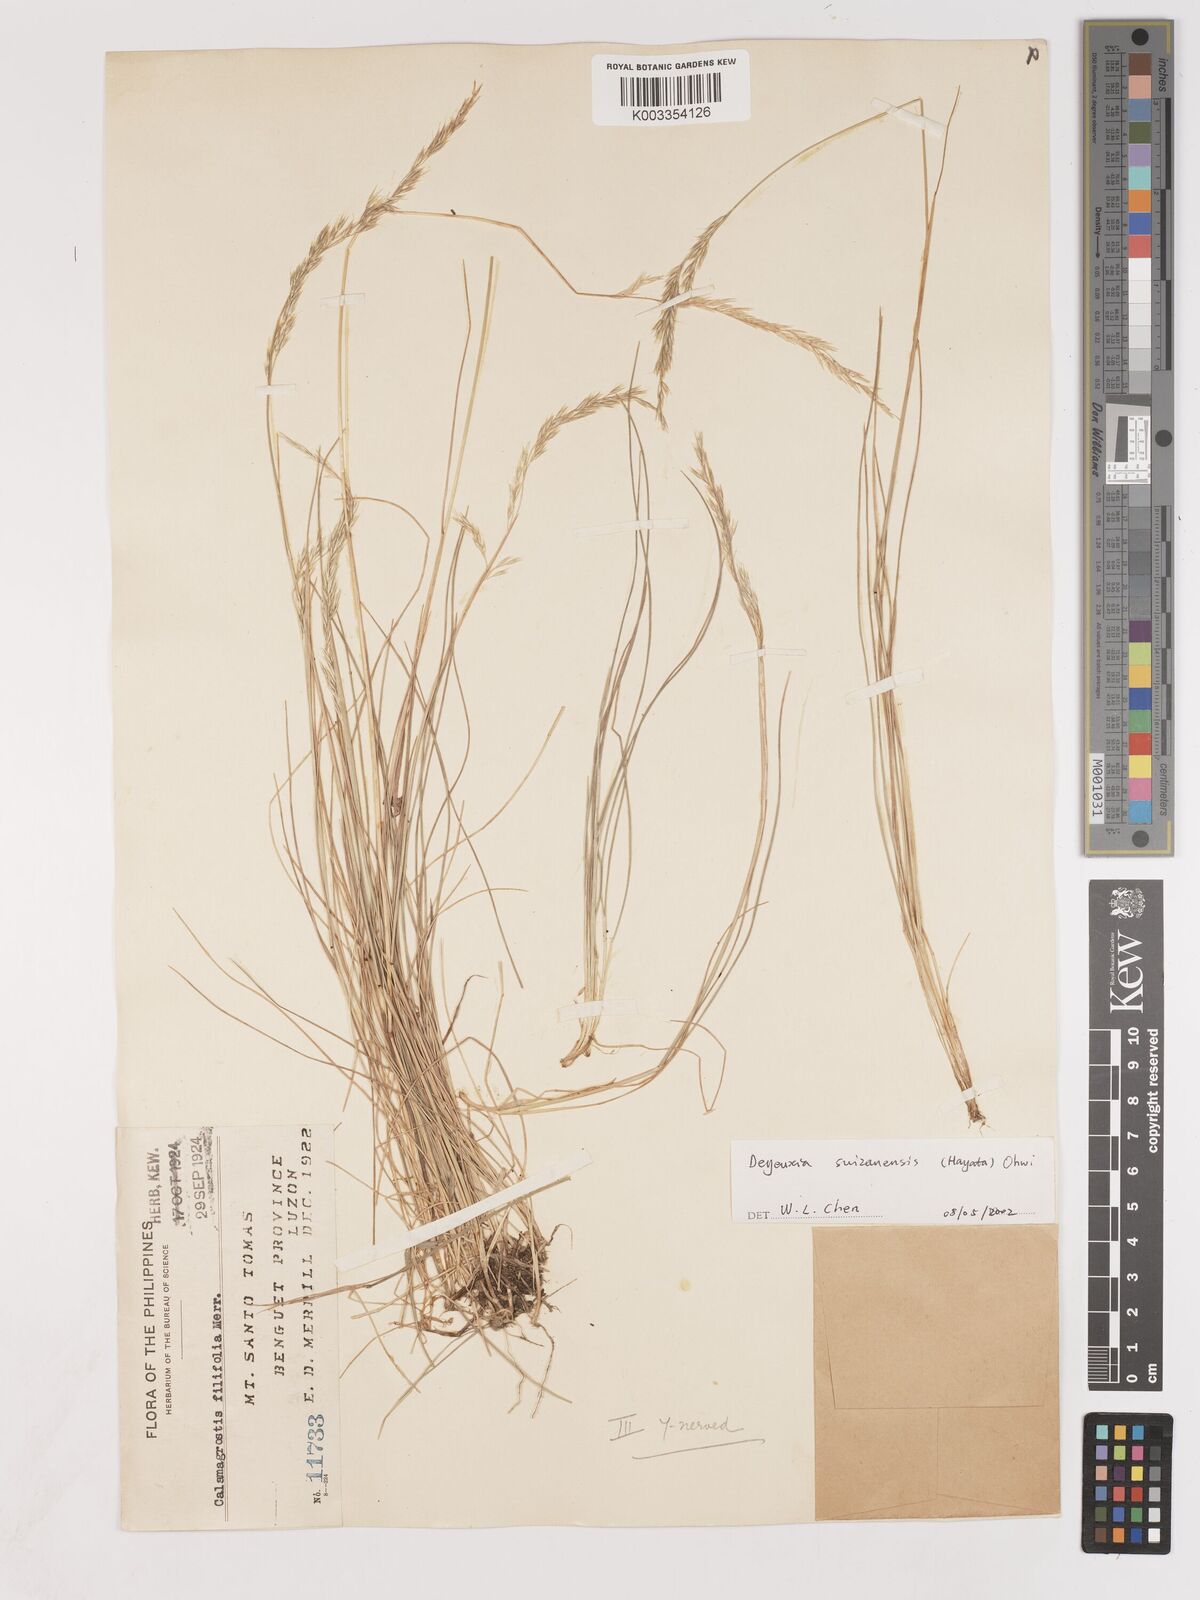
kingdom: Plantae
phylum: Tracheophyta
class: Liliopsida
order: Poales
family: Poaceae
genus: Calamagrostis
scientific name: Calamagrostis filifolia
